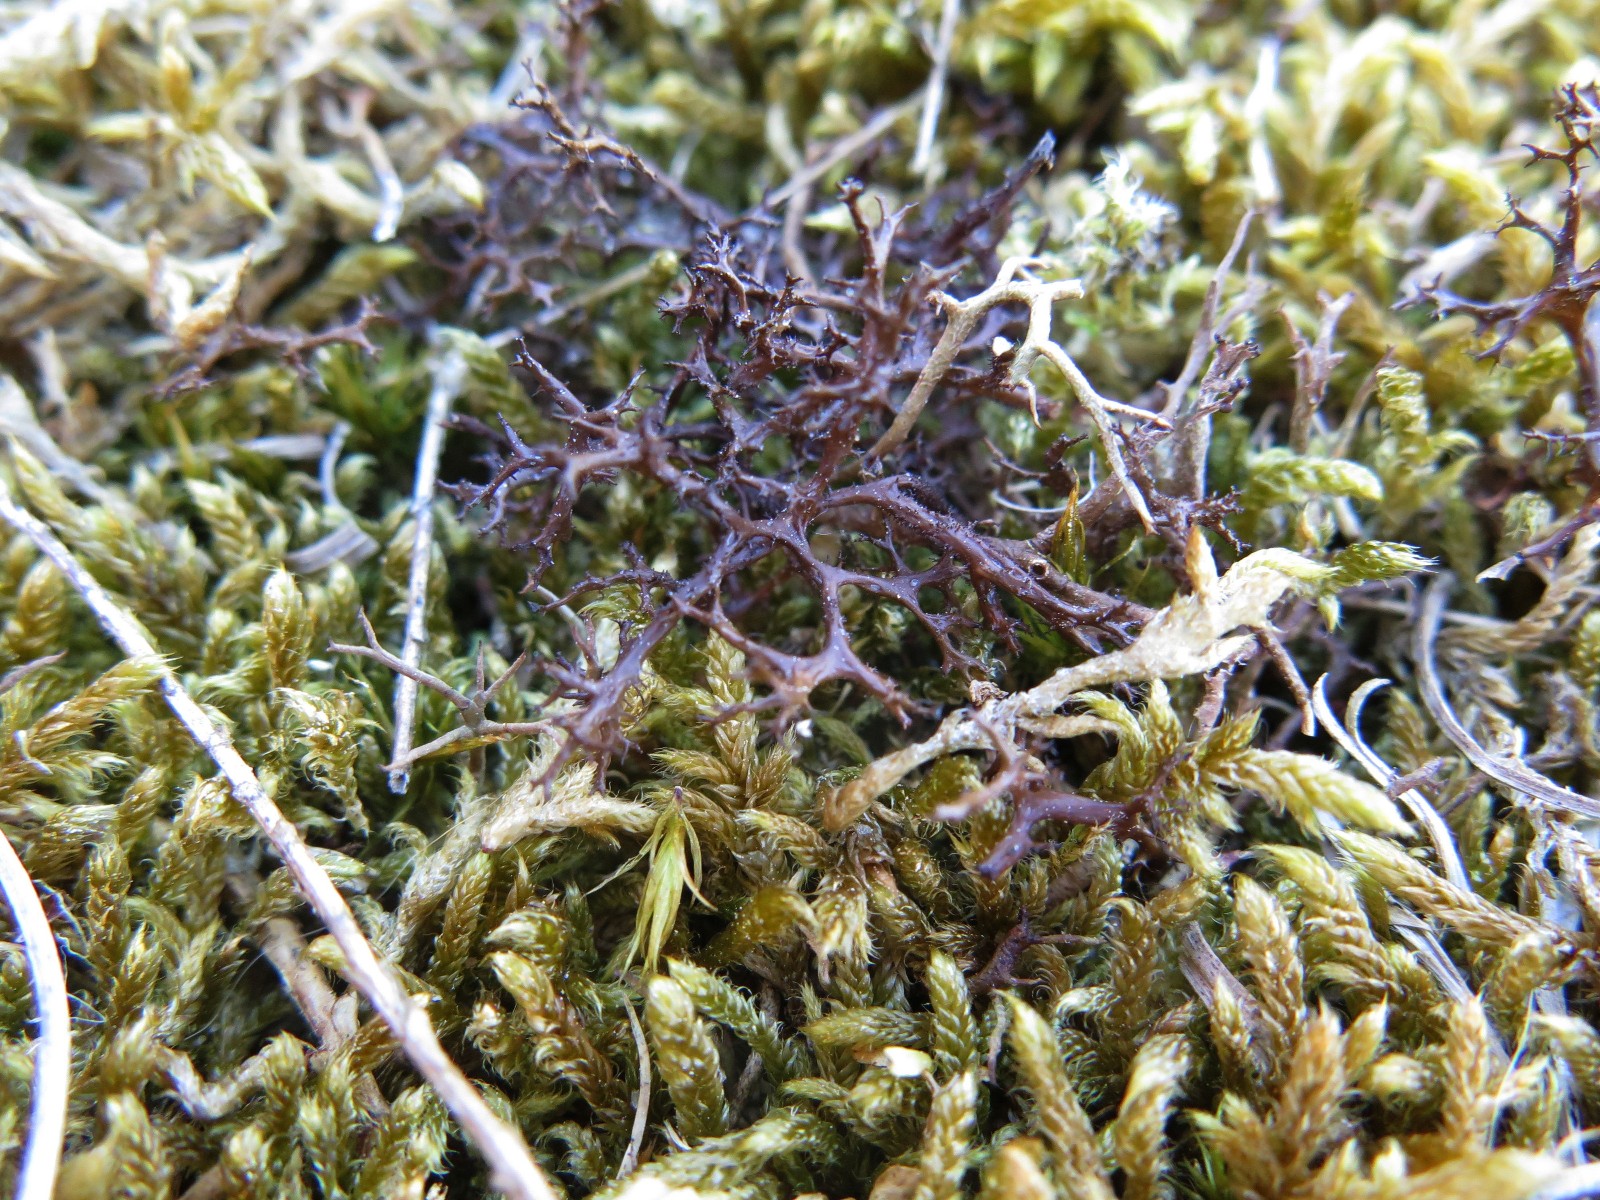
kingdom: Fungi
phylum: Ascomycota
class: Lecanoromycetes
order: Lecanorales
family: Parmeliaceae
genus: Cetraria
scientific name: Cetraria aculeata
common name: grubet tjørnelav
